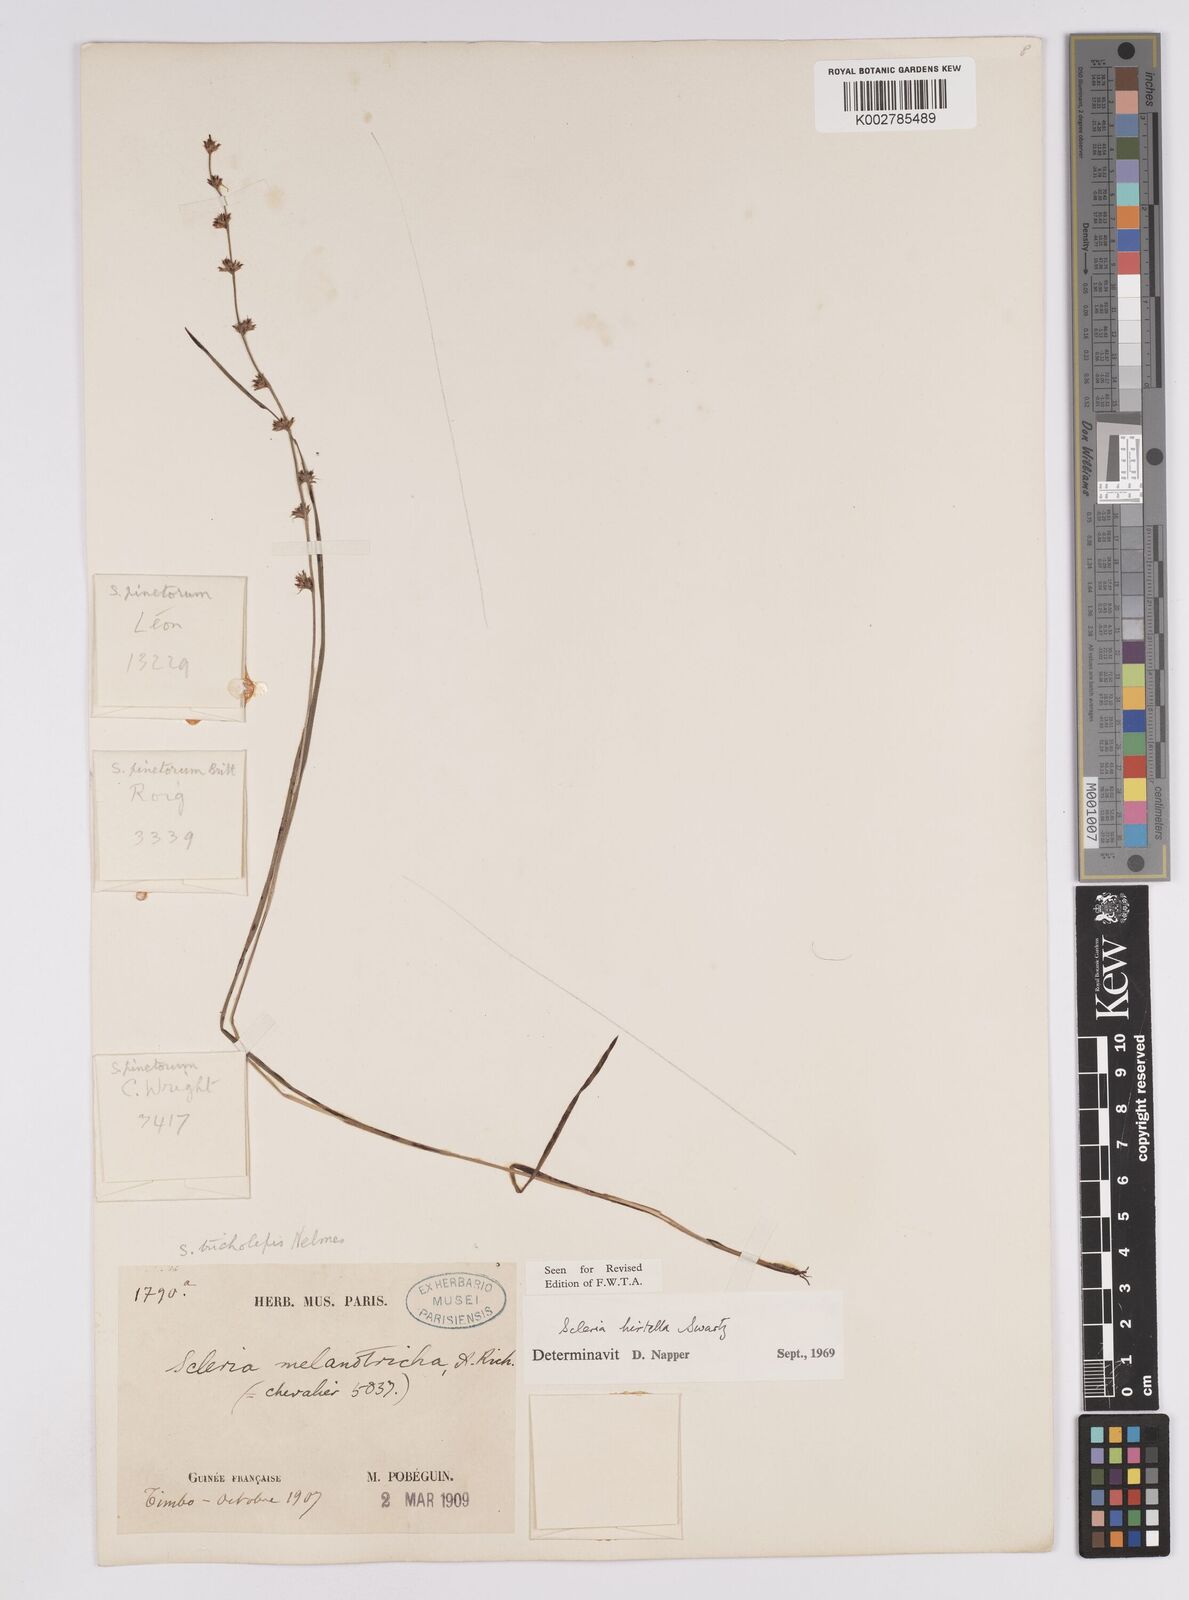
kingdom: Plantae
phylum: Tracheophyta
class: Liliopsida
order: Poales
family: Cyperaceae
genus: Scleria
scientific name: Scleria tricholepis
